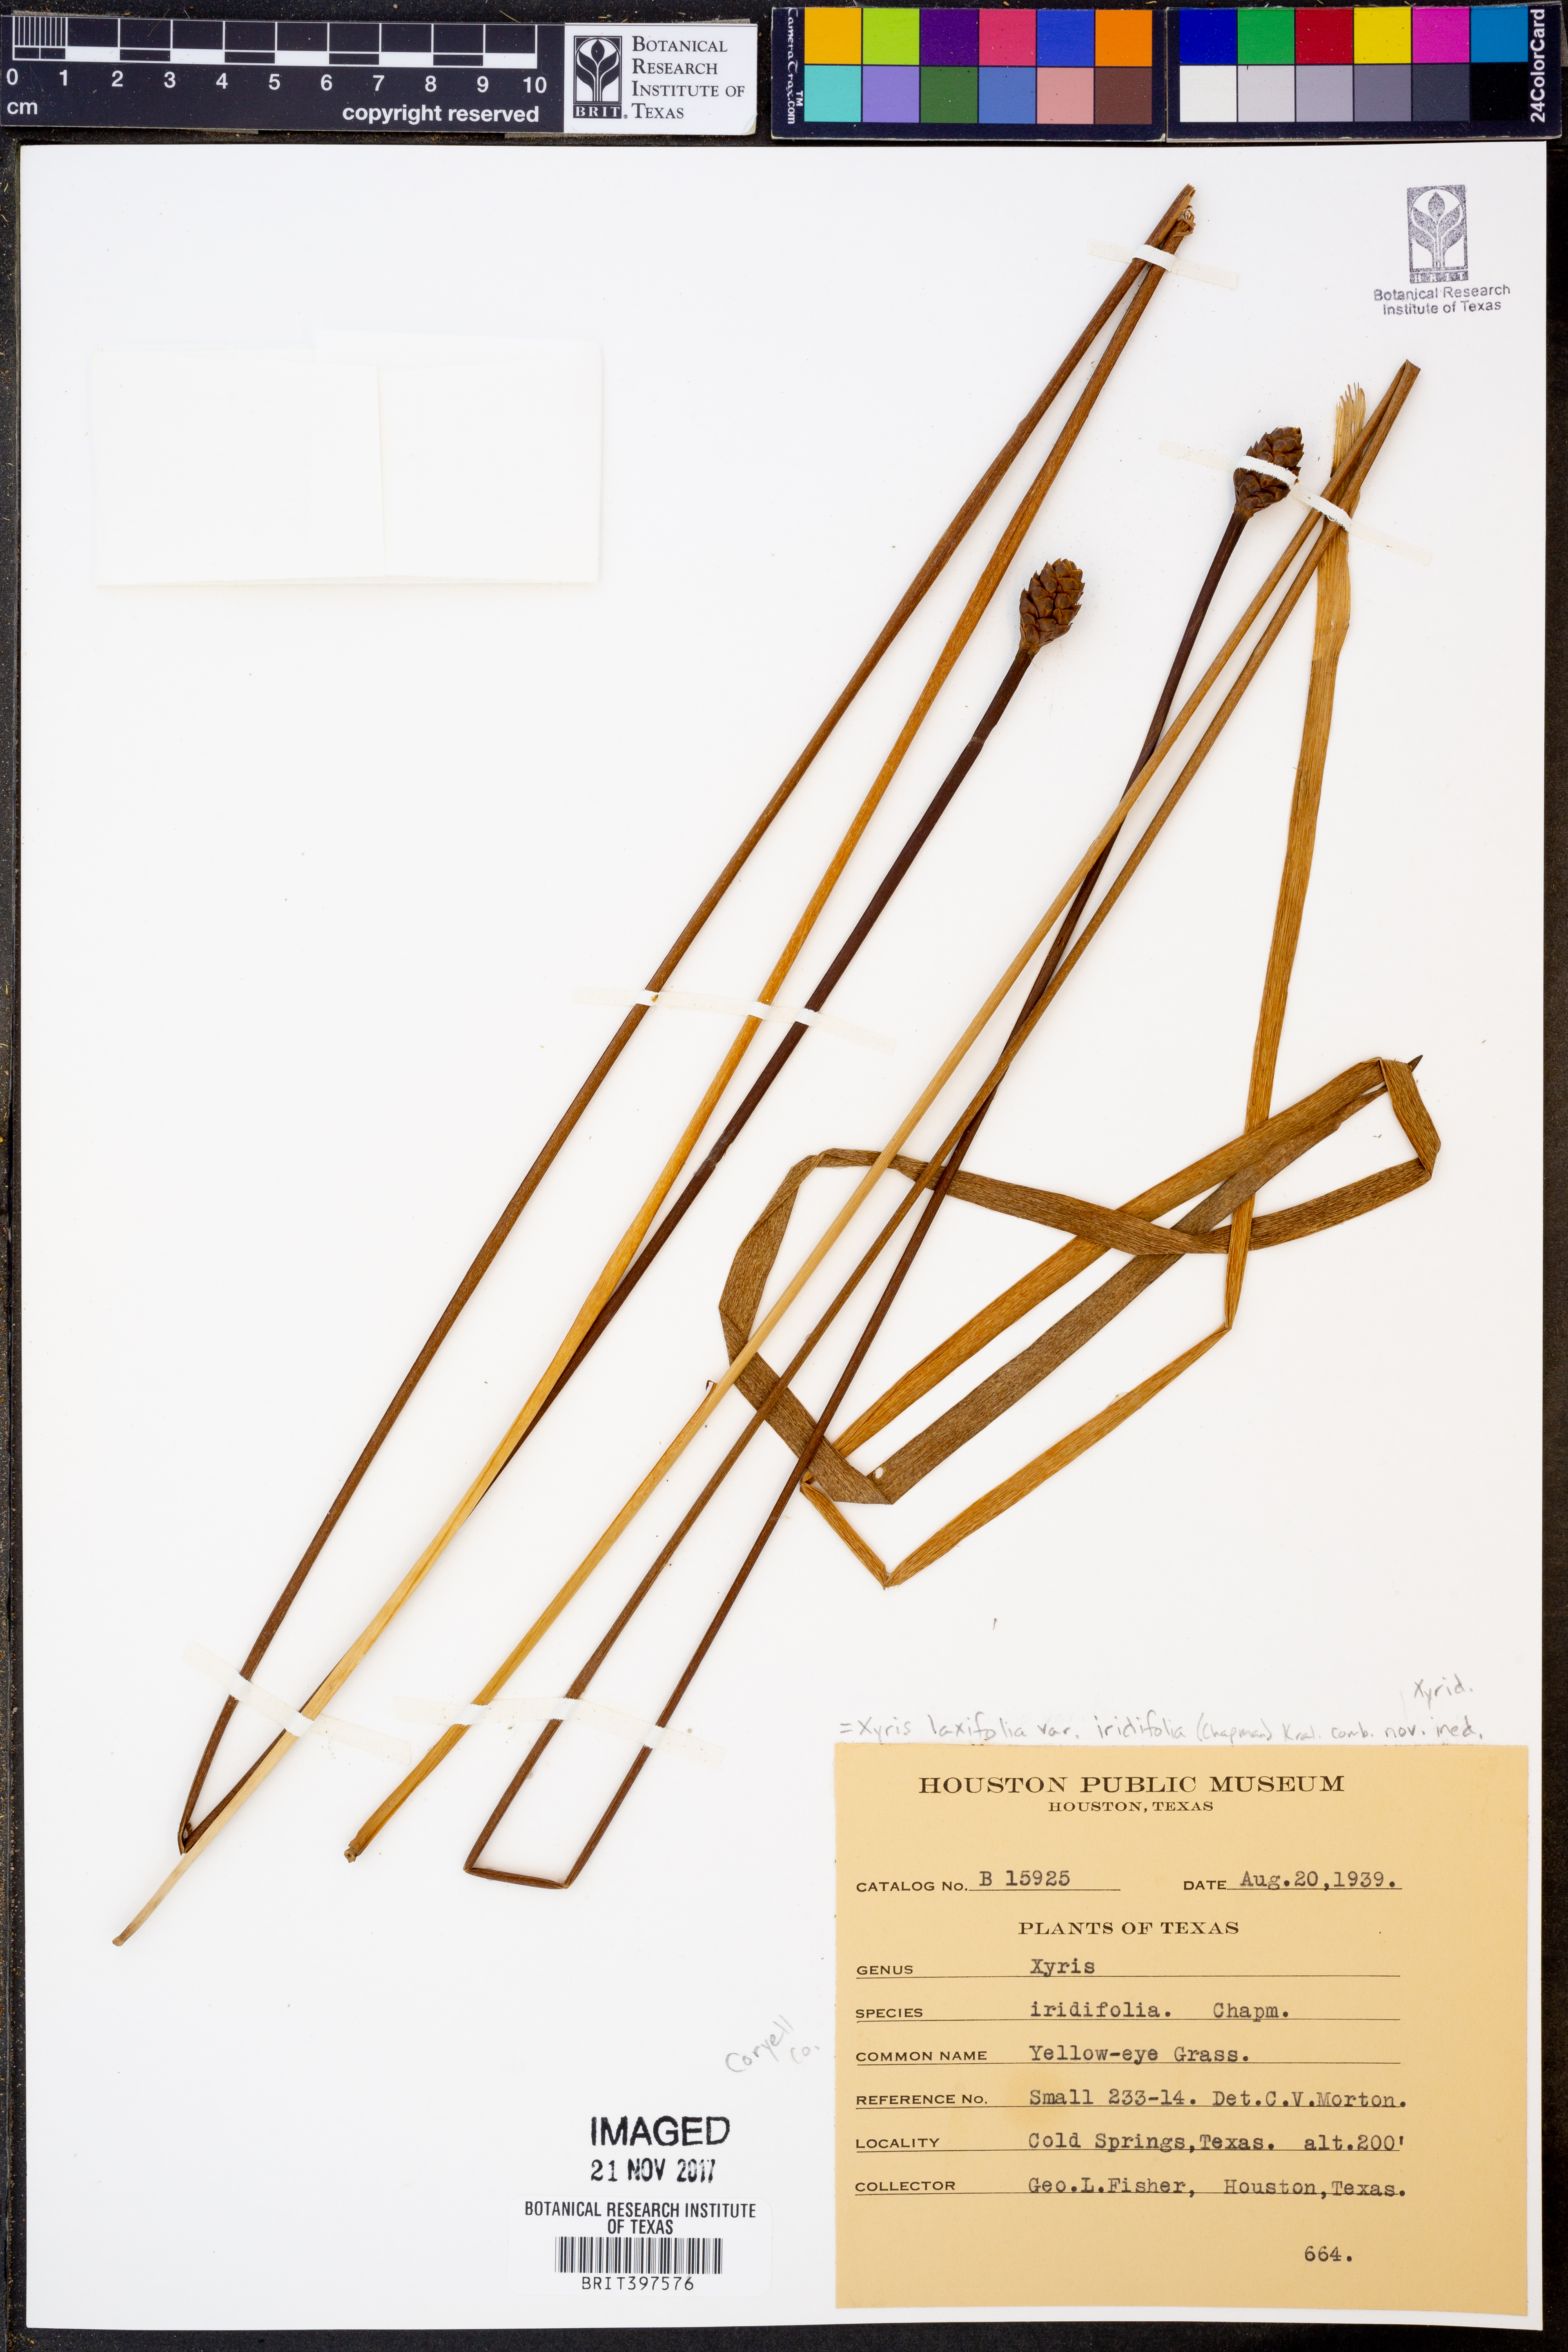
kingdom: Plantae
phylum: Tracheophyta
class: Liliopsida
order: Poales
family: Xyridaceae
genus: Xyris
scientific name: Xyris laxifolia
